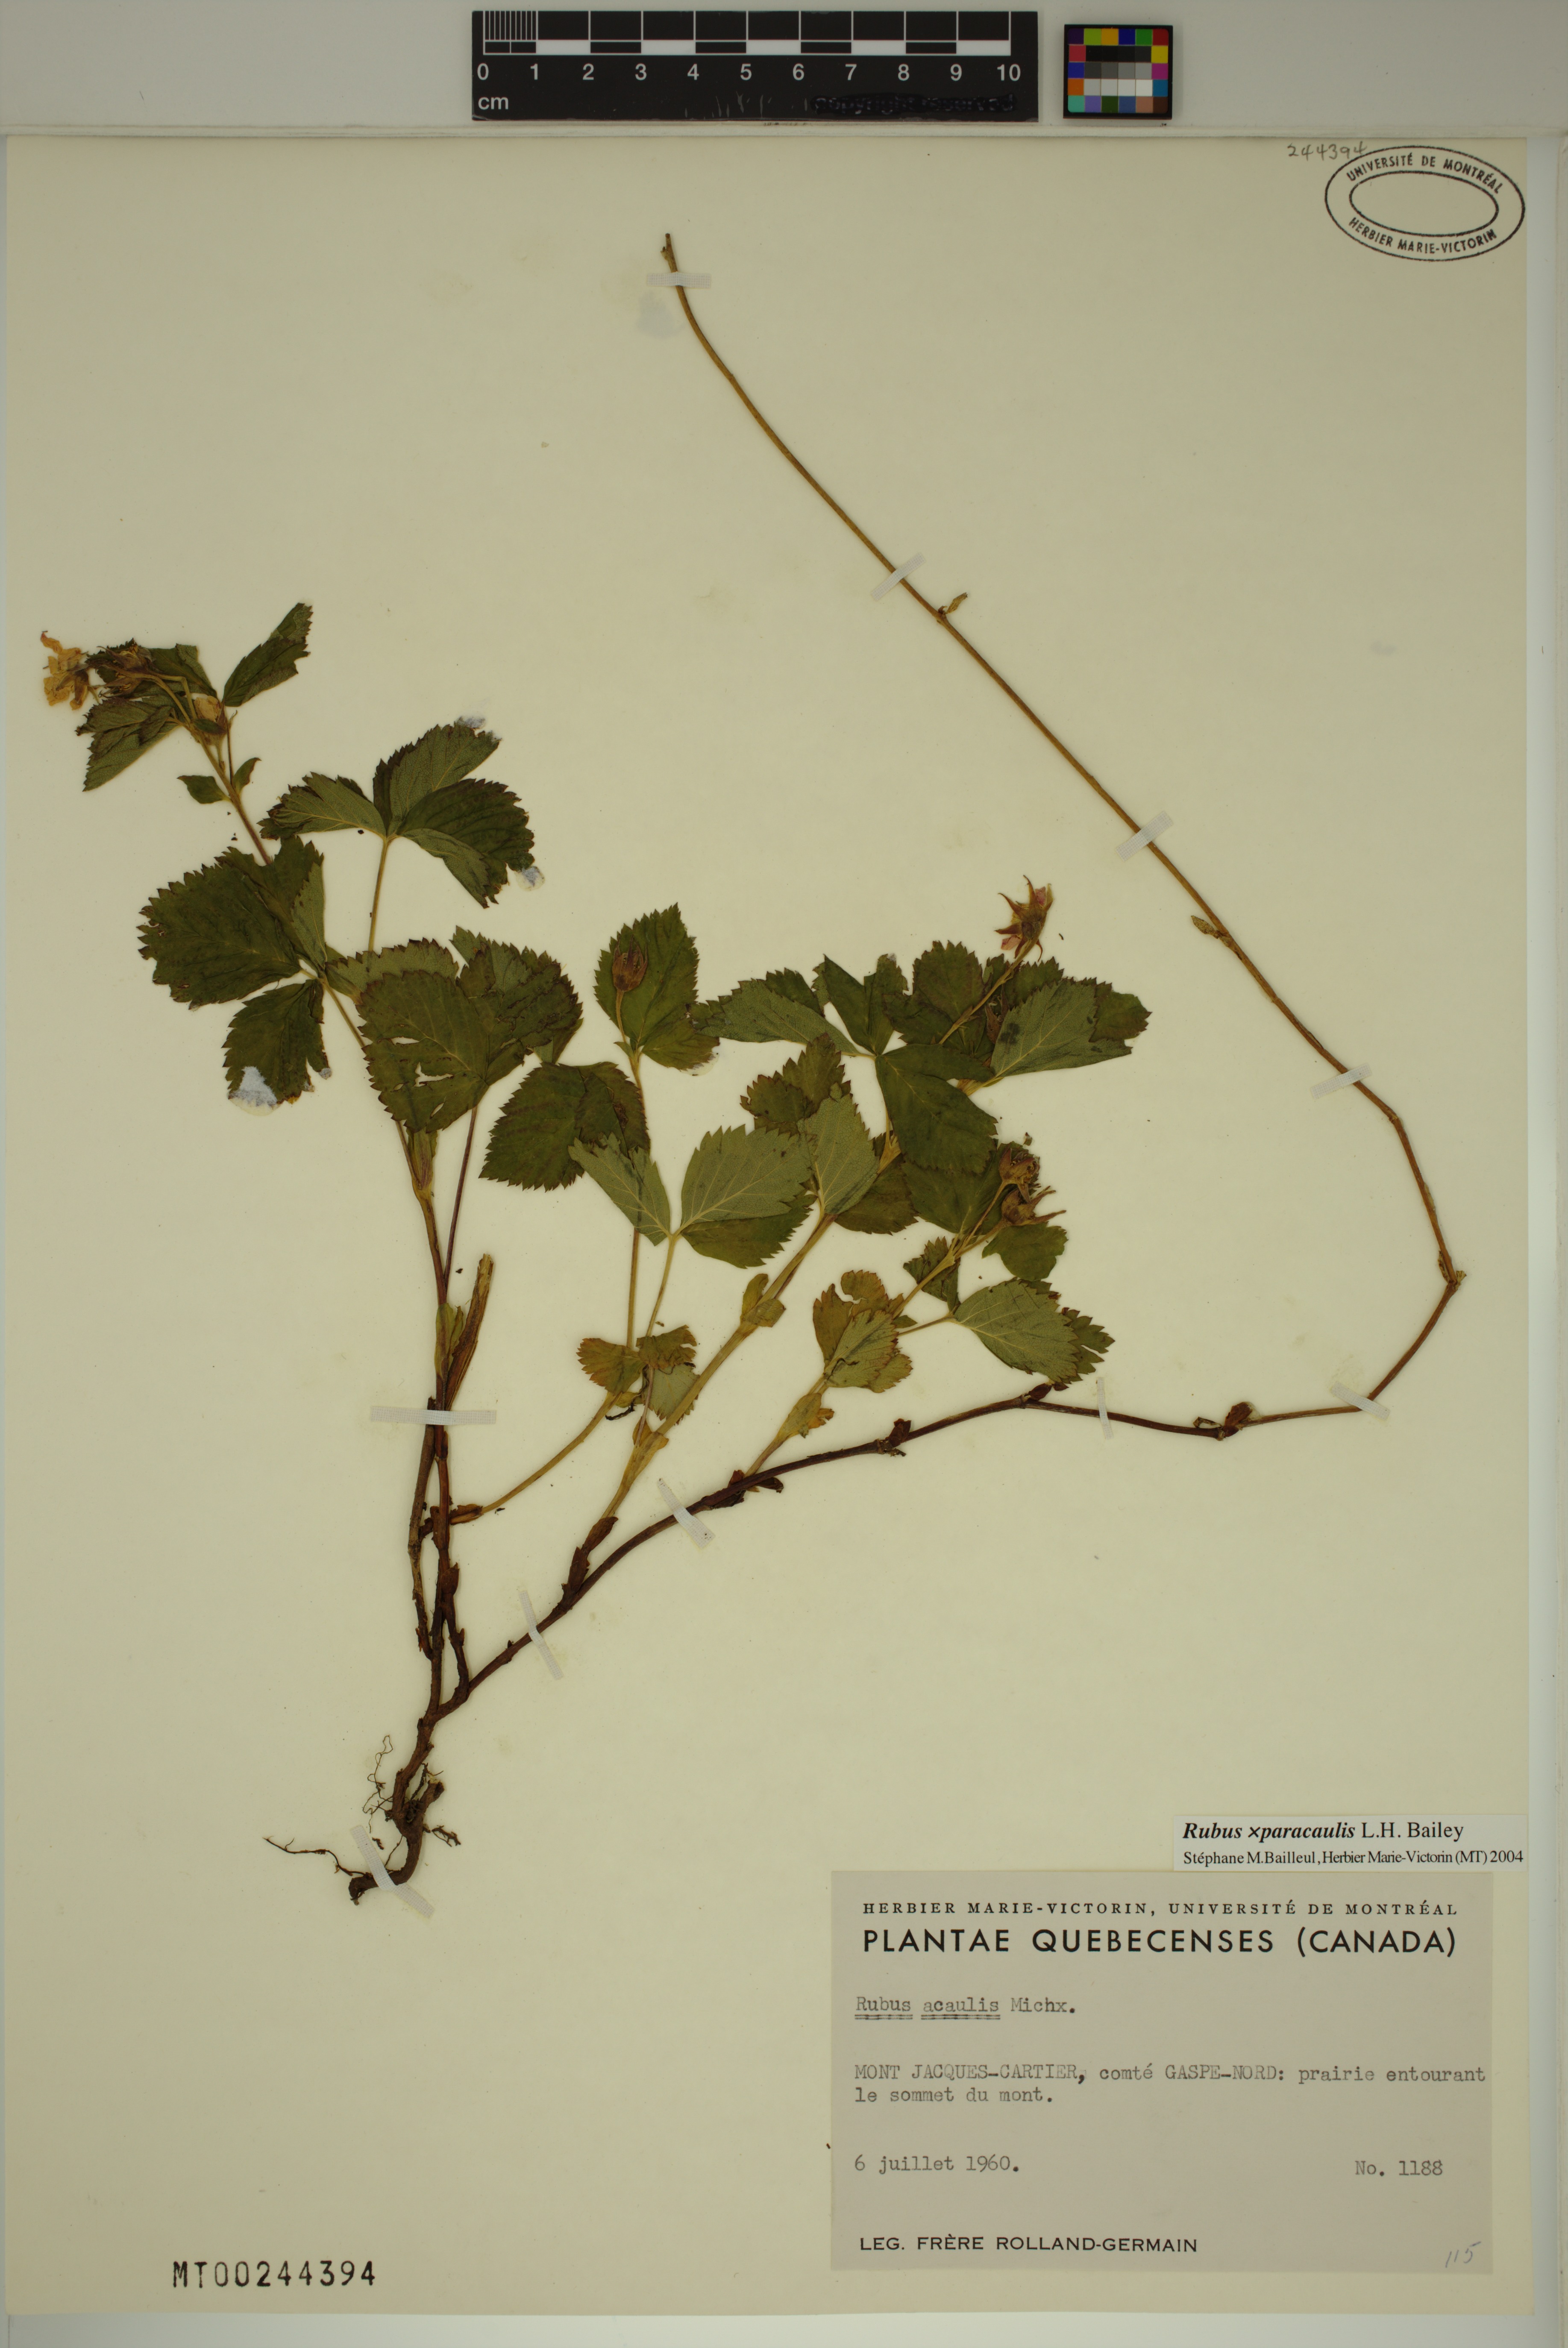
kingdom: Plantae
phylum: Tracheophyta
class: Magnoliopsida
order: Rosales
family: Rosaceae
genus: Rubus
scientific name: Rubus paracaulis
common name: Dwarf white-flowered raspberry
